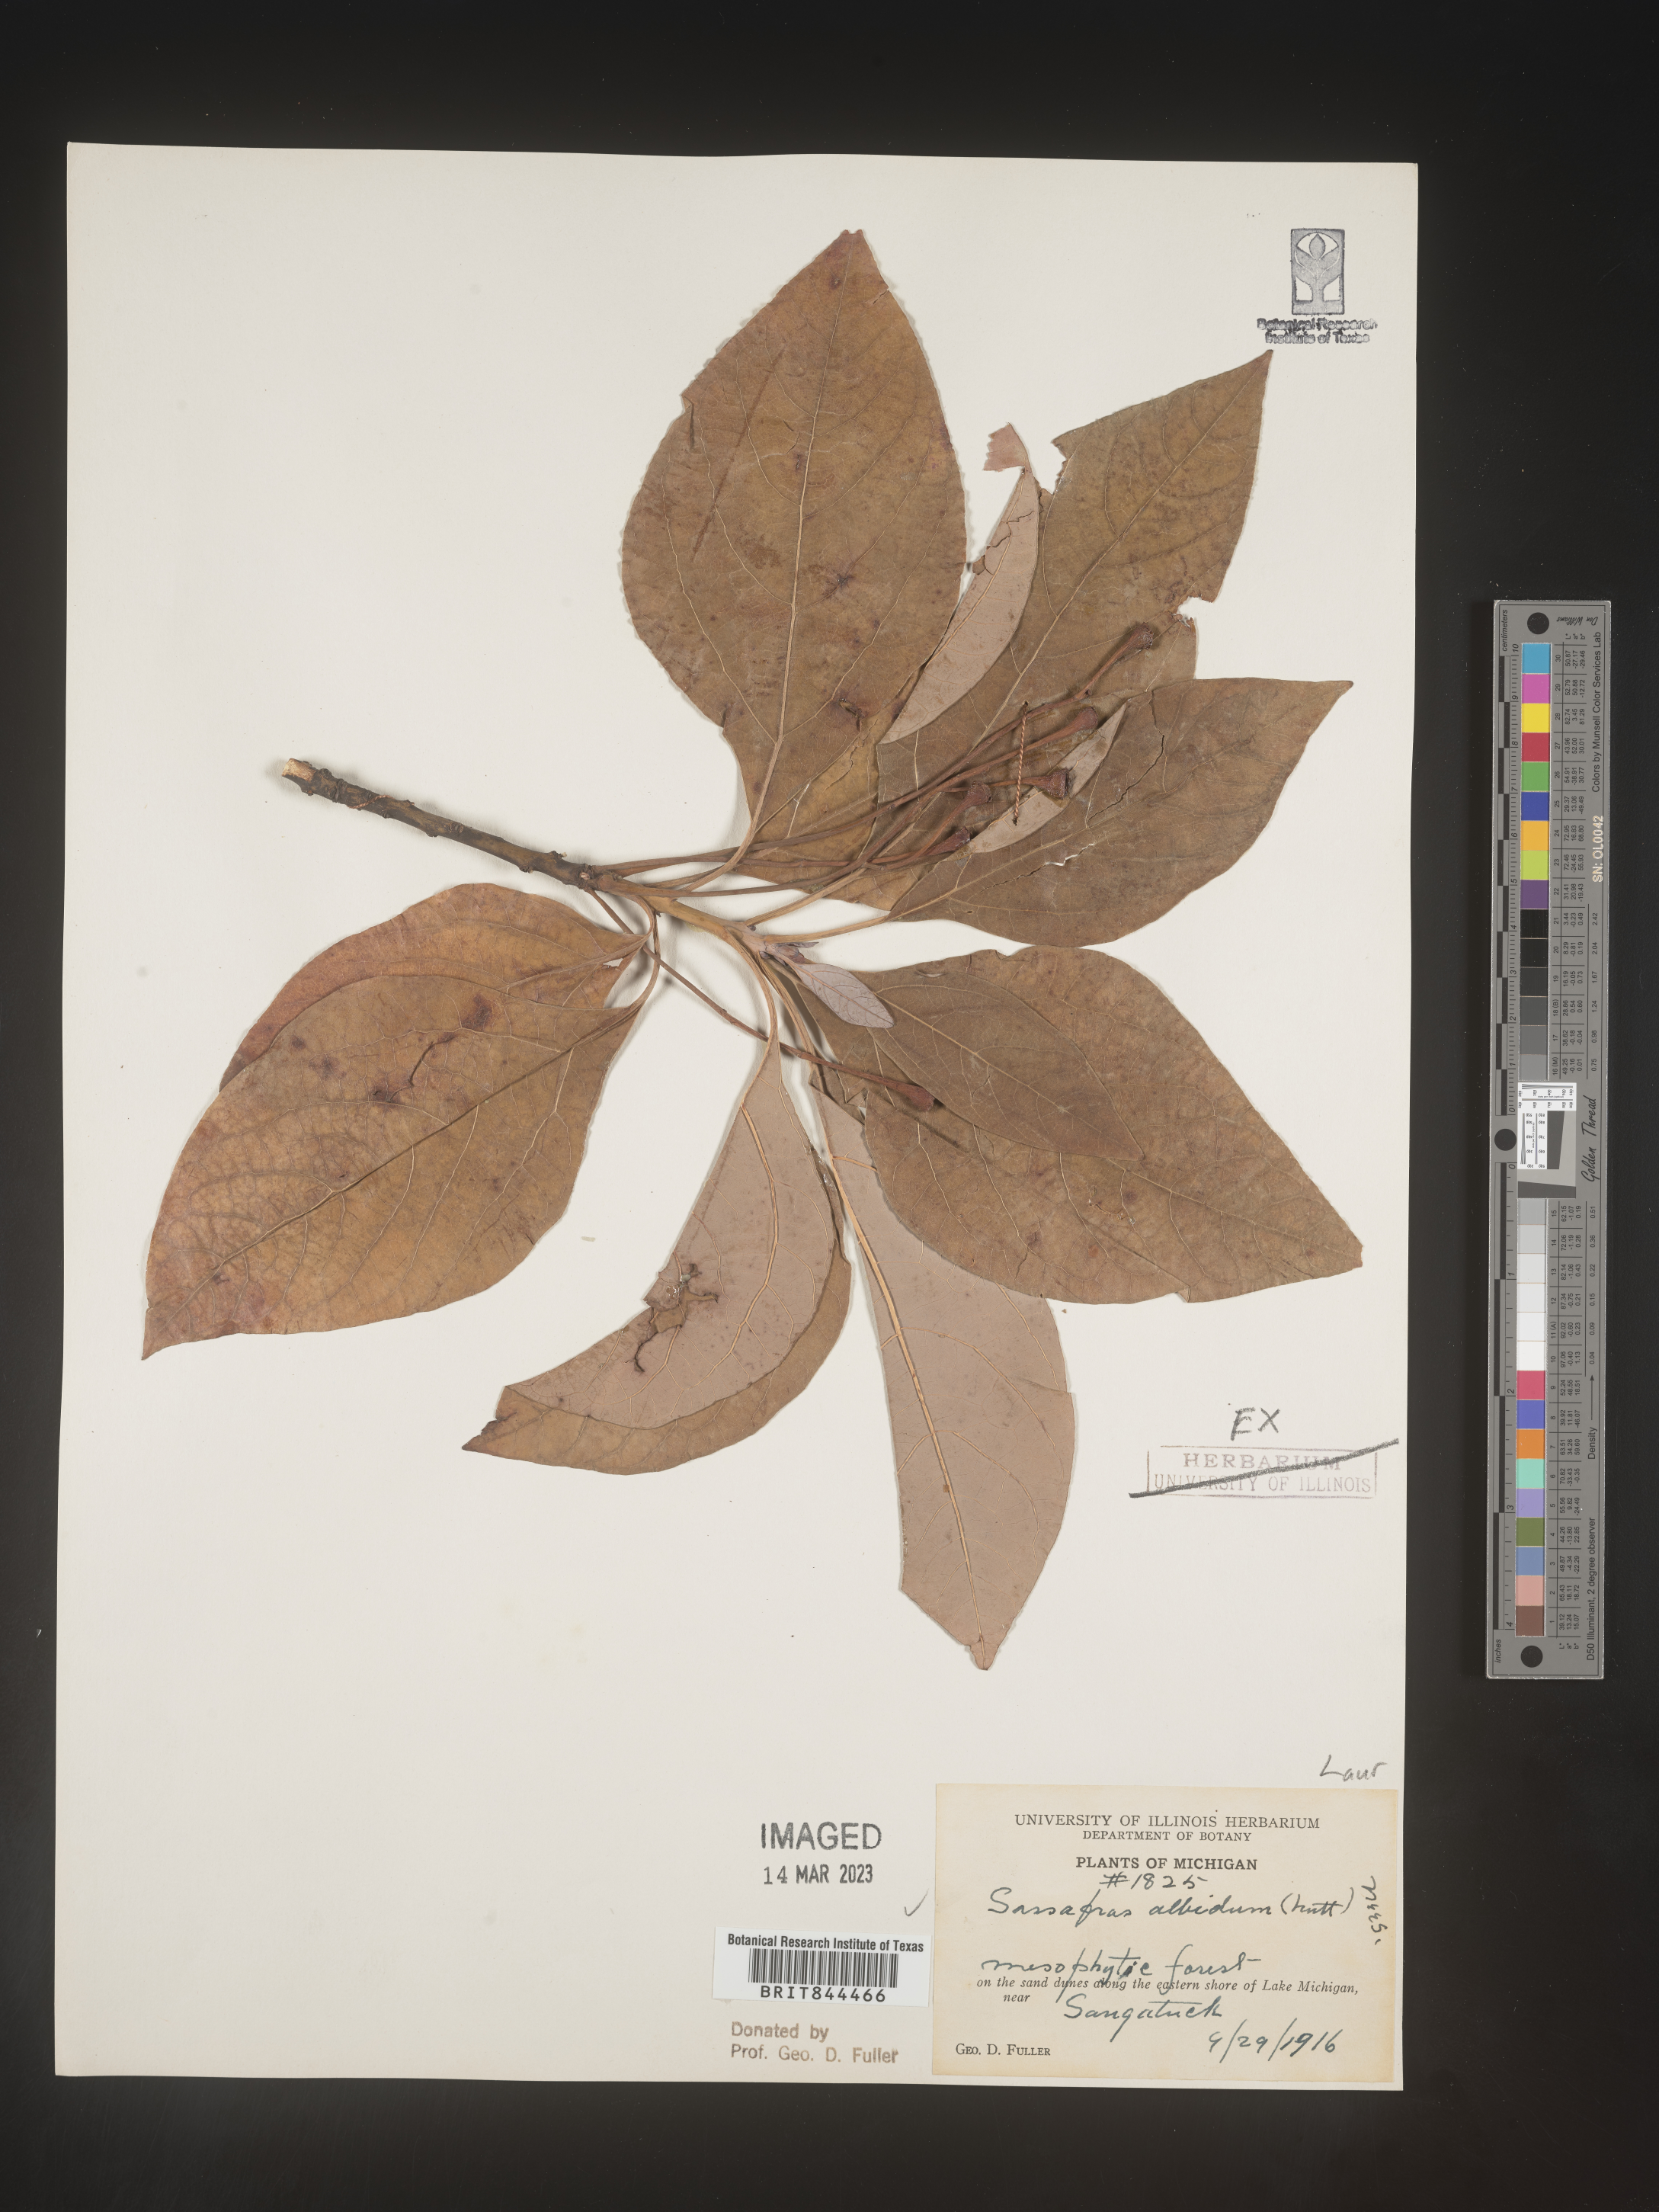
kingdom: Plantae
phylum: Tracheophyta
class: Magnoliopsida
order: Laurales
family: Lauraceae
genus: Sassafras
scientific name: Sassafras albidum
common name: Sassafras
